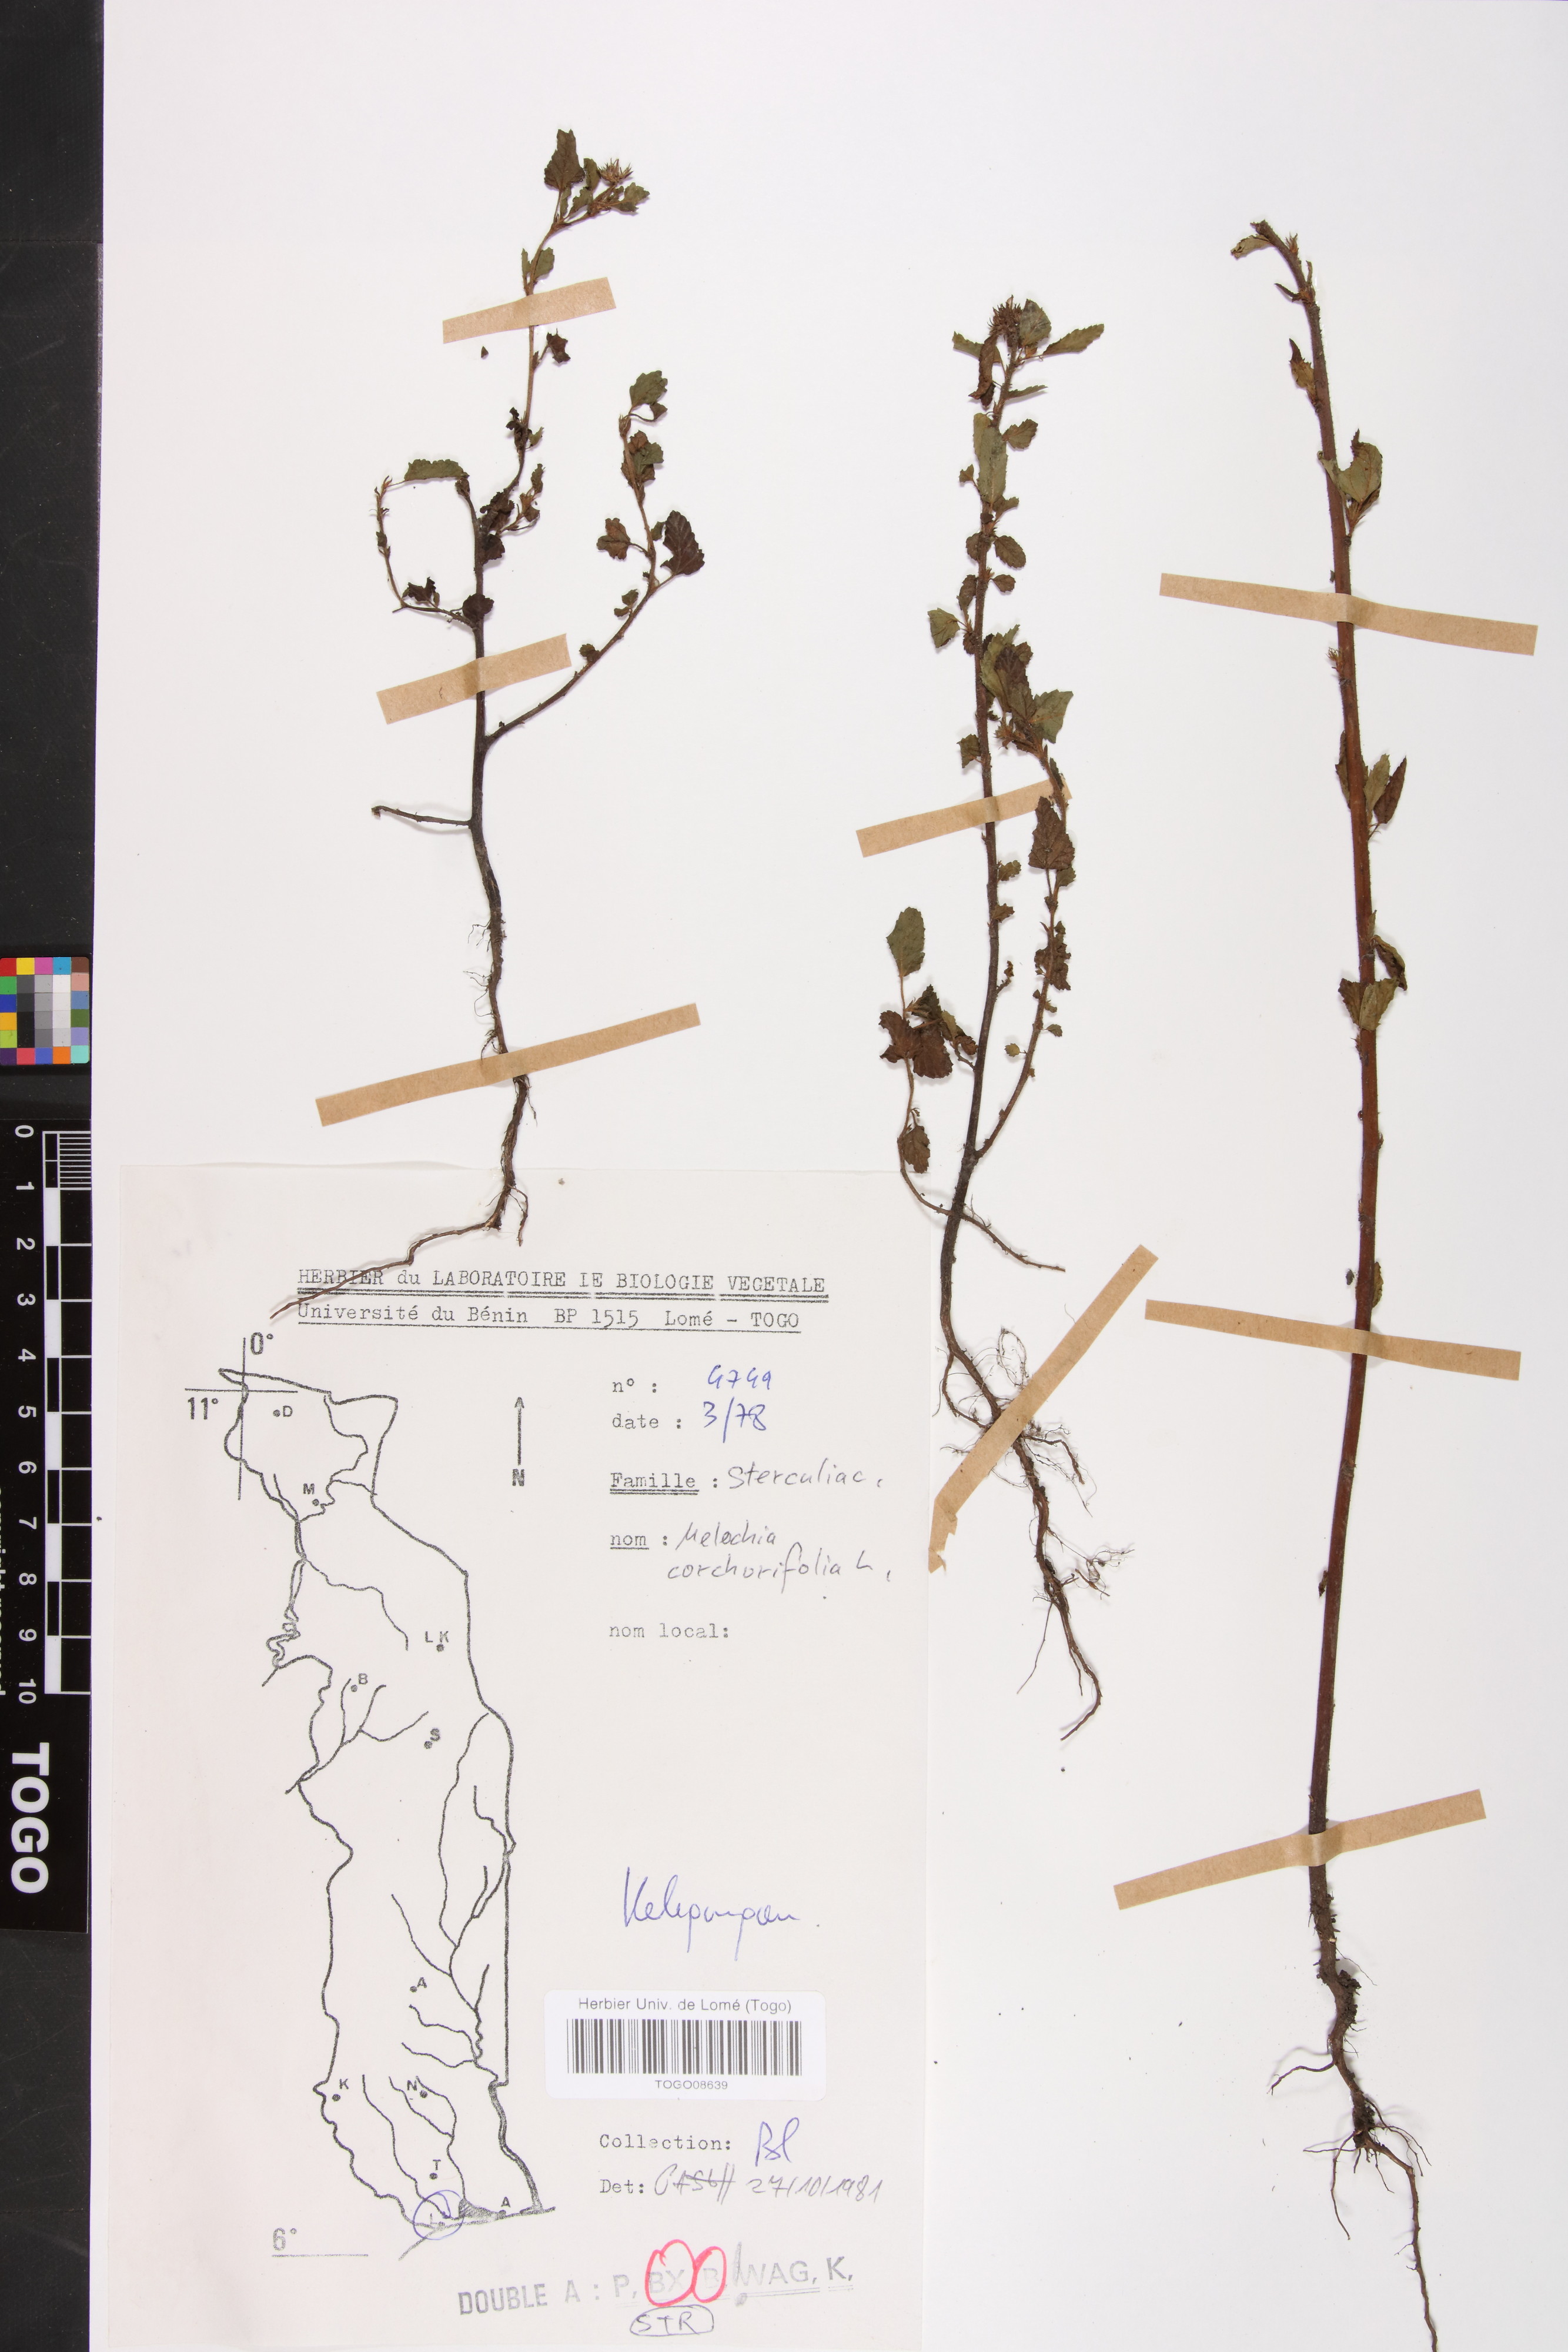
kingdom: Plantae
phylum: Tracheophyta
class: Magnoliopsida
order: Malvales
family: Malvaceae
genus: Melochia
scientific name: Melochia corchorifolia
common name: Chocolateweed
